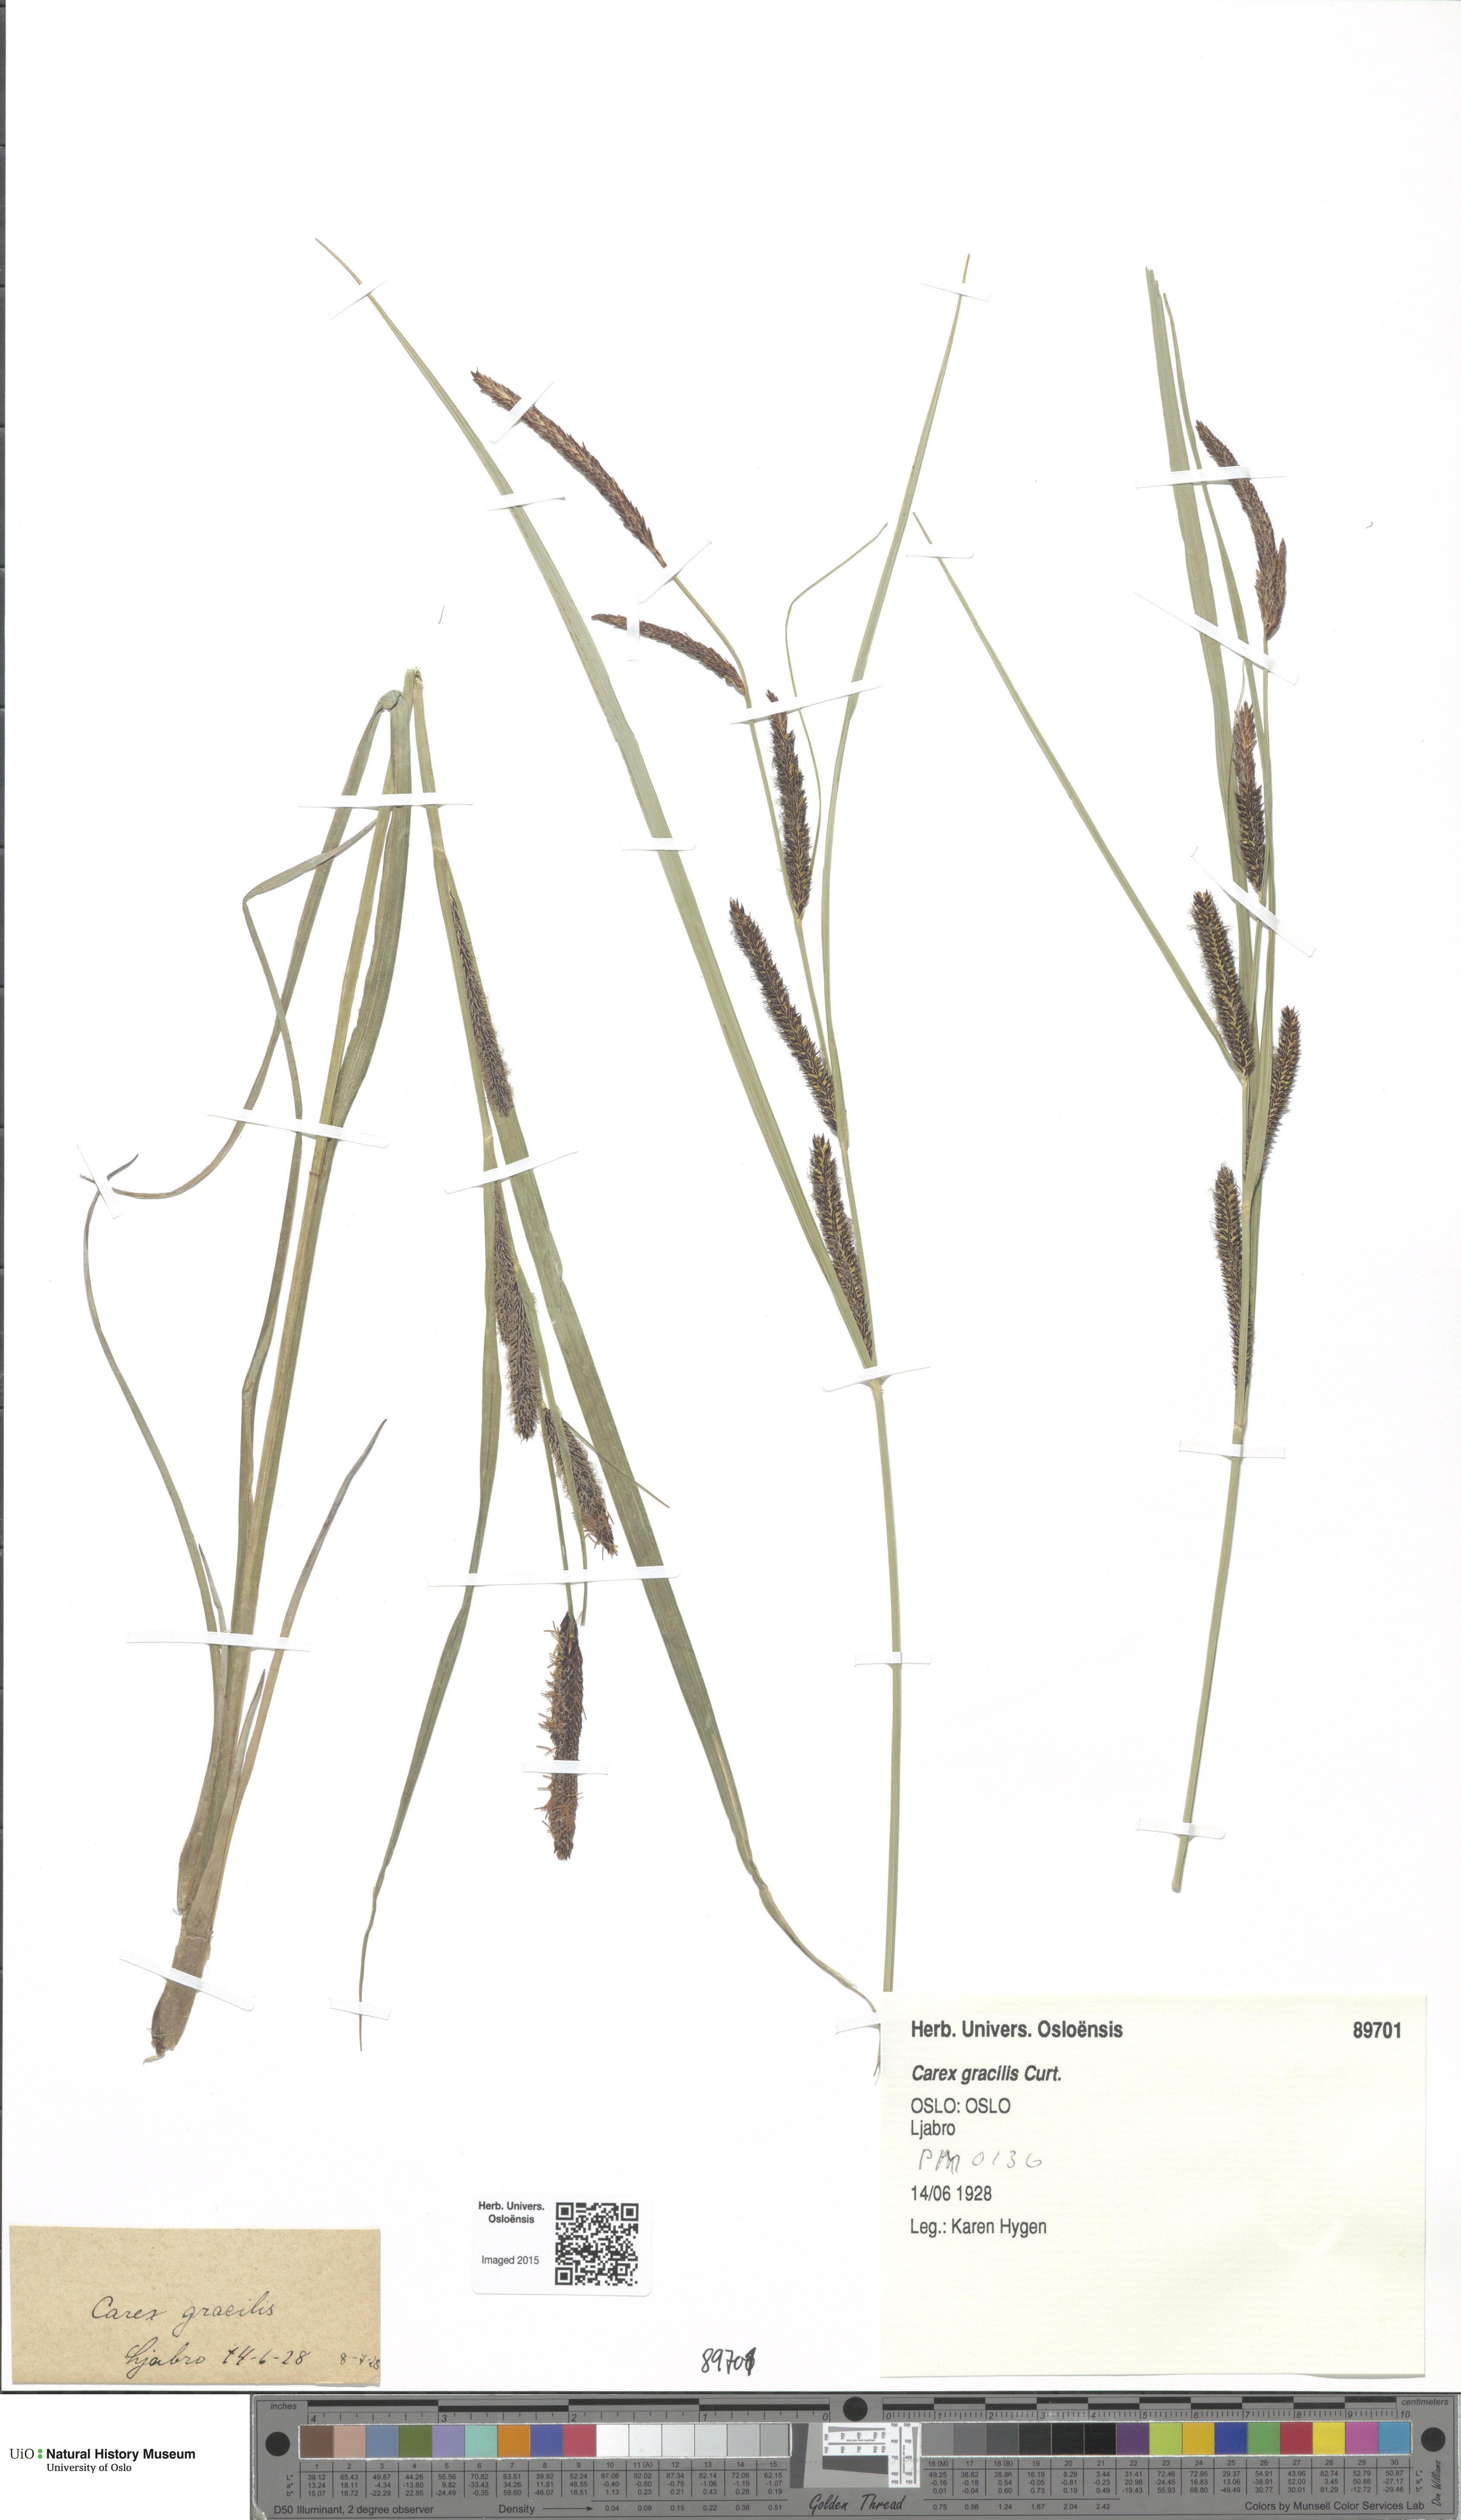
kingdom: Plantae
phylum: Tracheophyta
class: Liliopsida
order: Poales
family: Cyperaceae
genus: Carex
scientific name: Carex acuta
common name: Slender tufted-sedge
